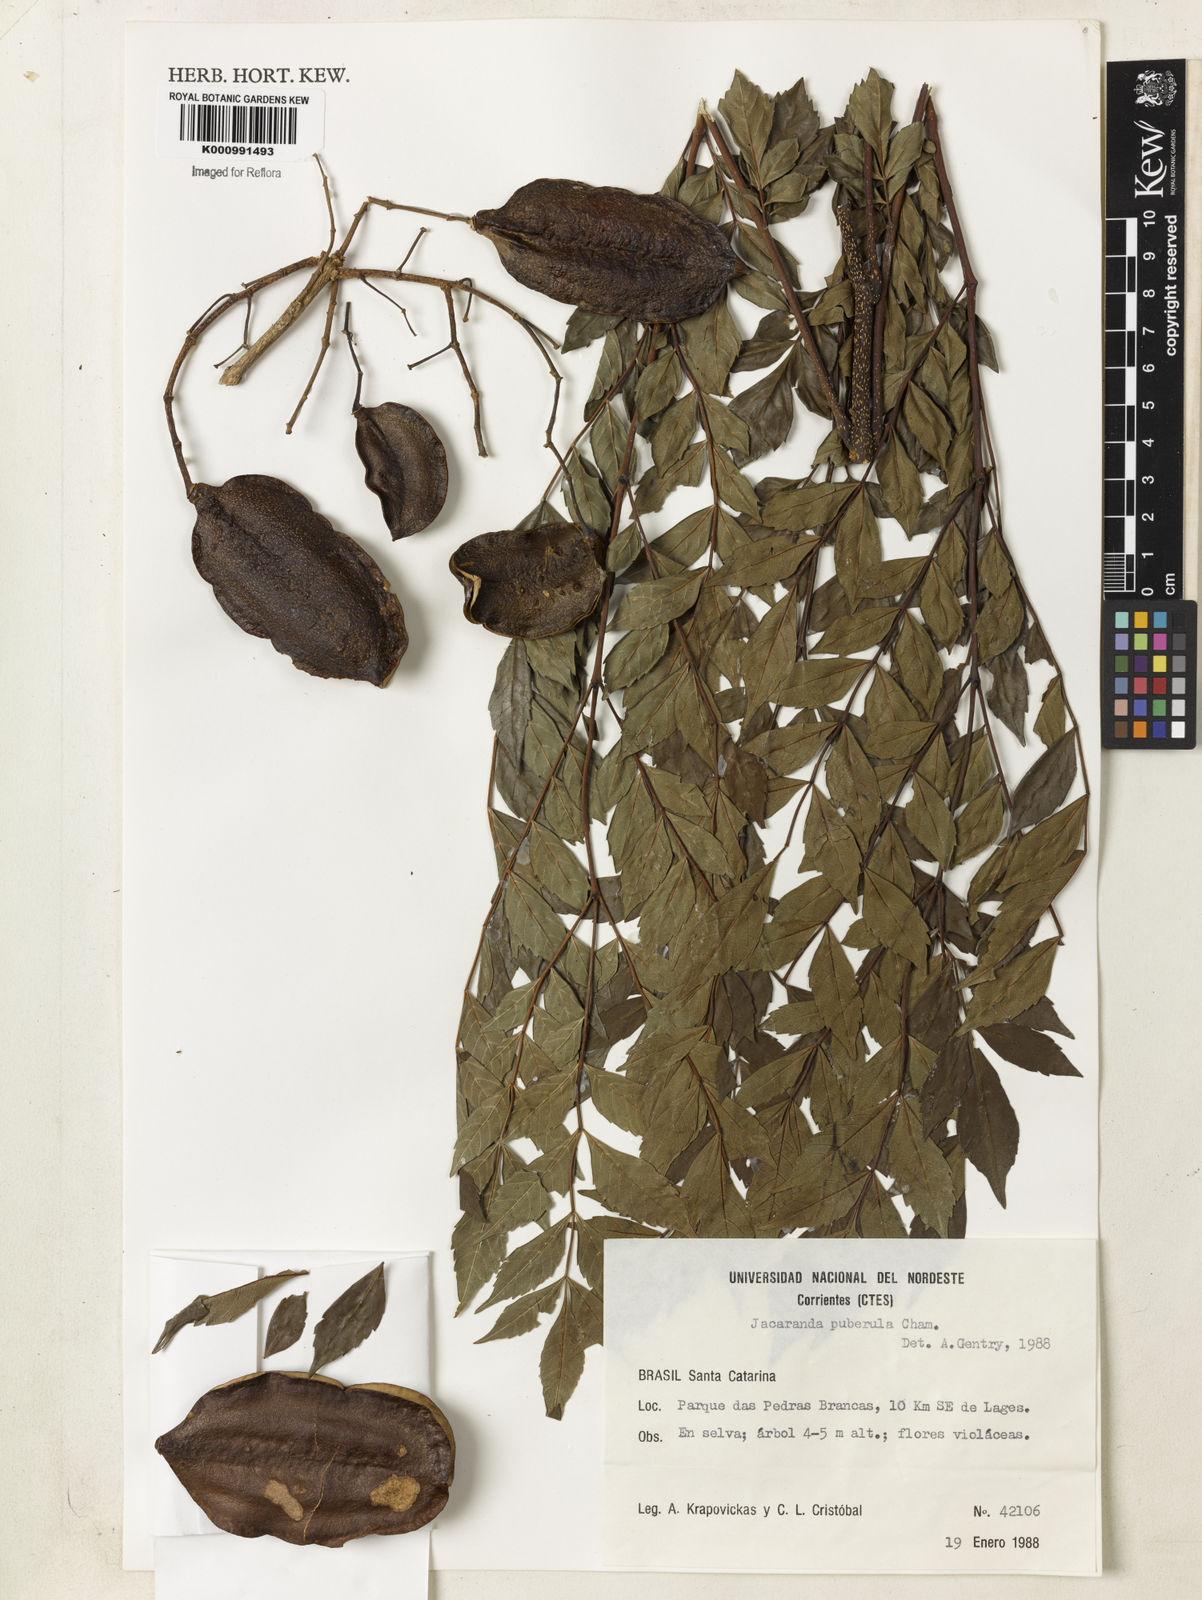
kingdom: Plantae
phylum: Tracheophyta
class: Magnoliopsida
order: Lamiales
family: Bignoniaceae
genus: Jacaranda
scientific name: Jacaranda puberula
